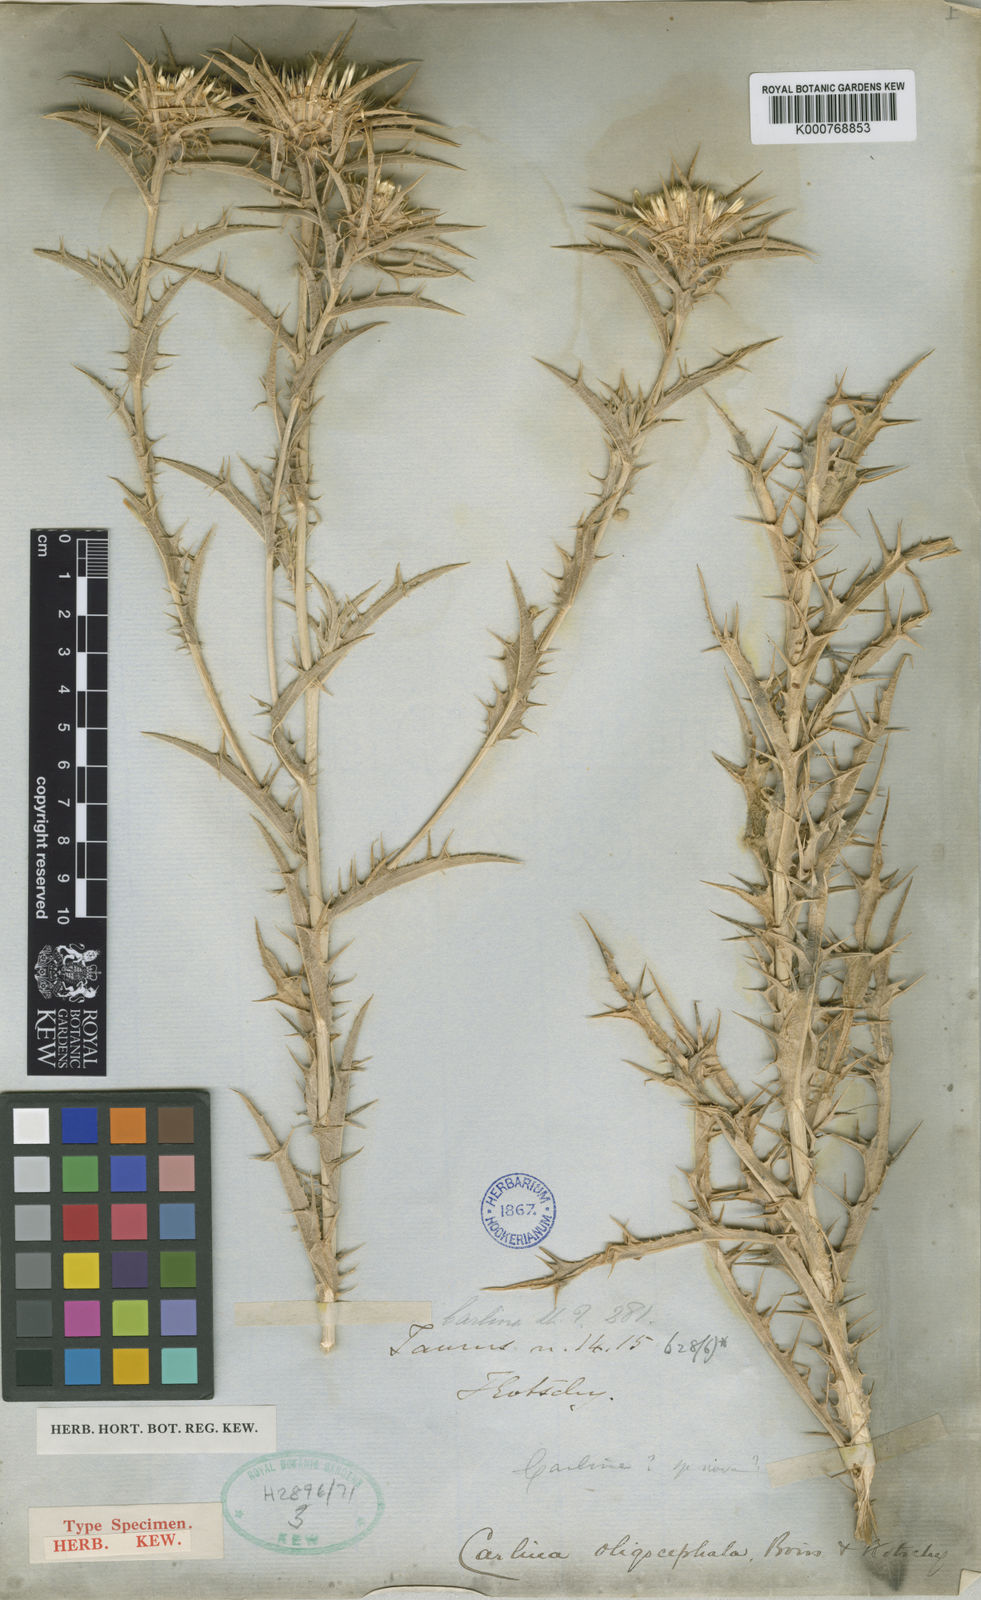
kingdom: Plantae
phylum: Tracheophyta
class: Magnoliopsida
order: Asterales
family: Asteraceae
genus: Carlina
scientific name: Carlina oligocephala
